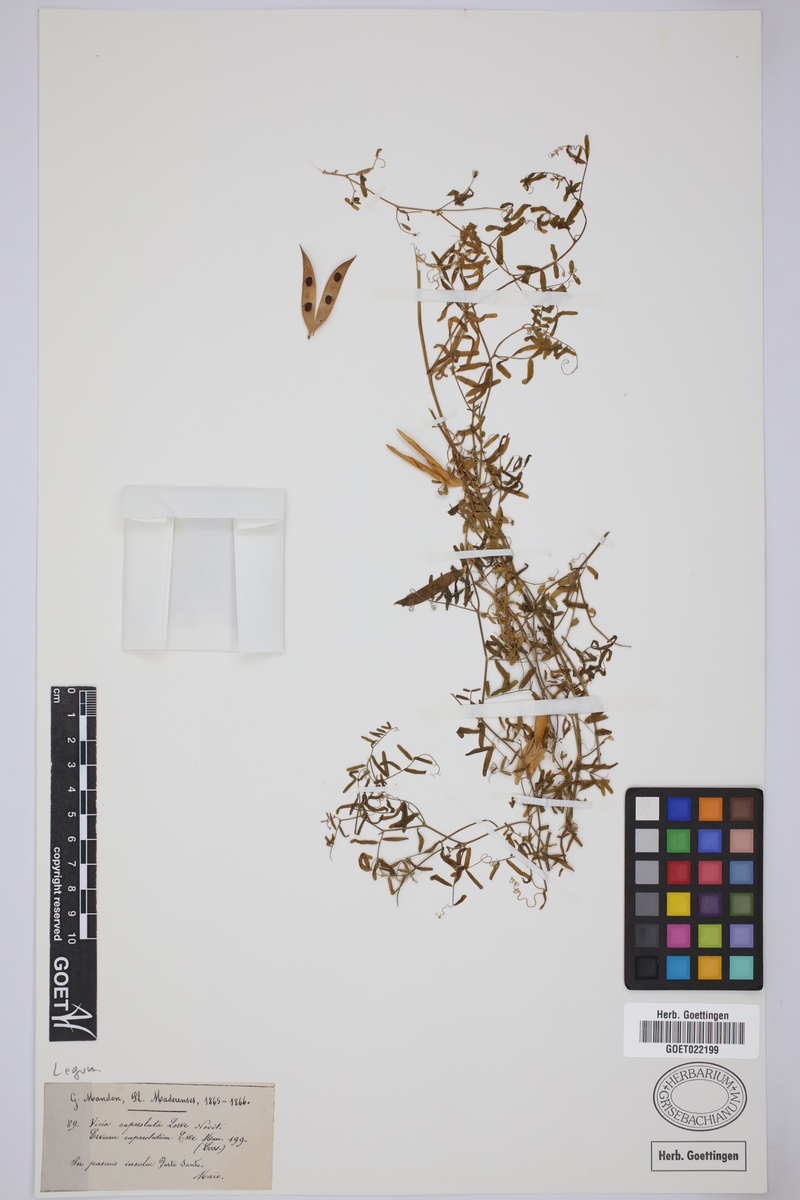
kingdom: Plantae
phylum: Tracheophyta
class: Magnoliopsida
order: Fabales
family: Fabaceae
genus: Vicia
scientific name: Vicia capreolata
